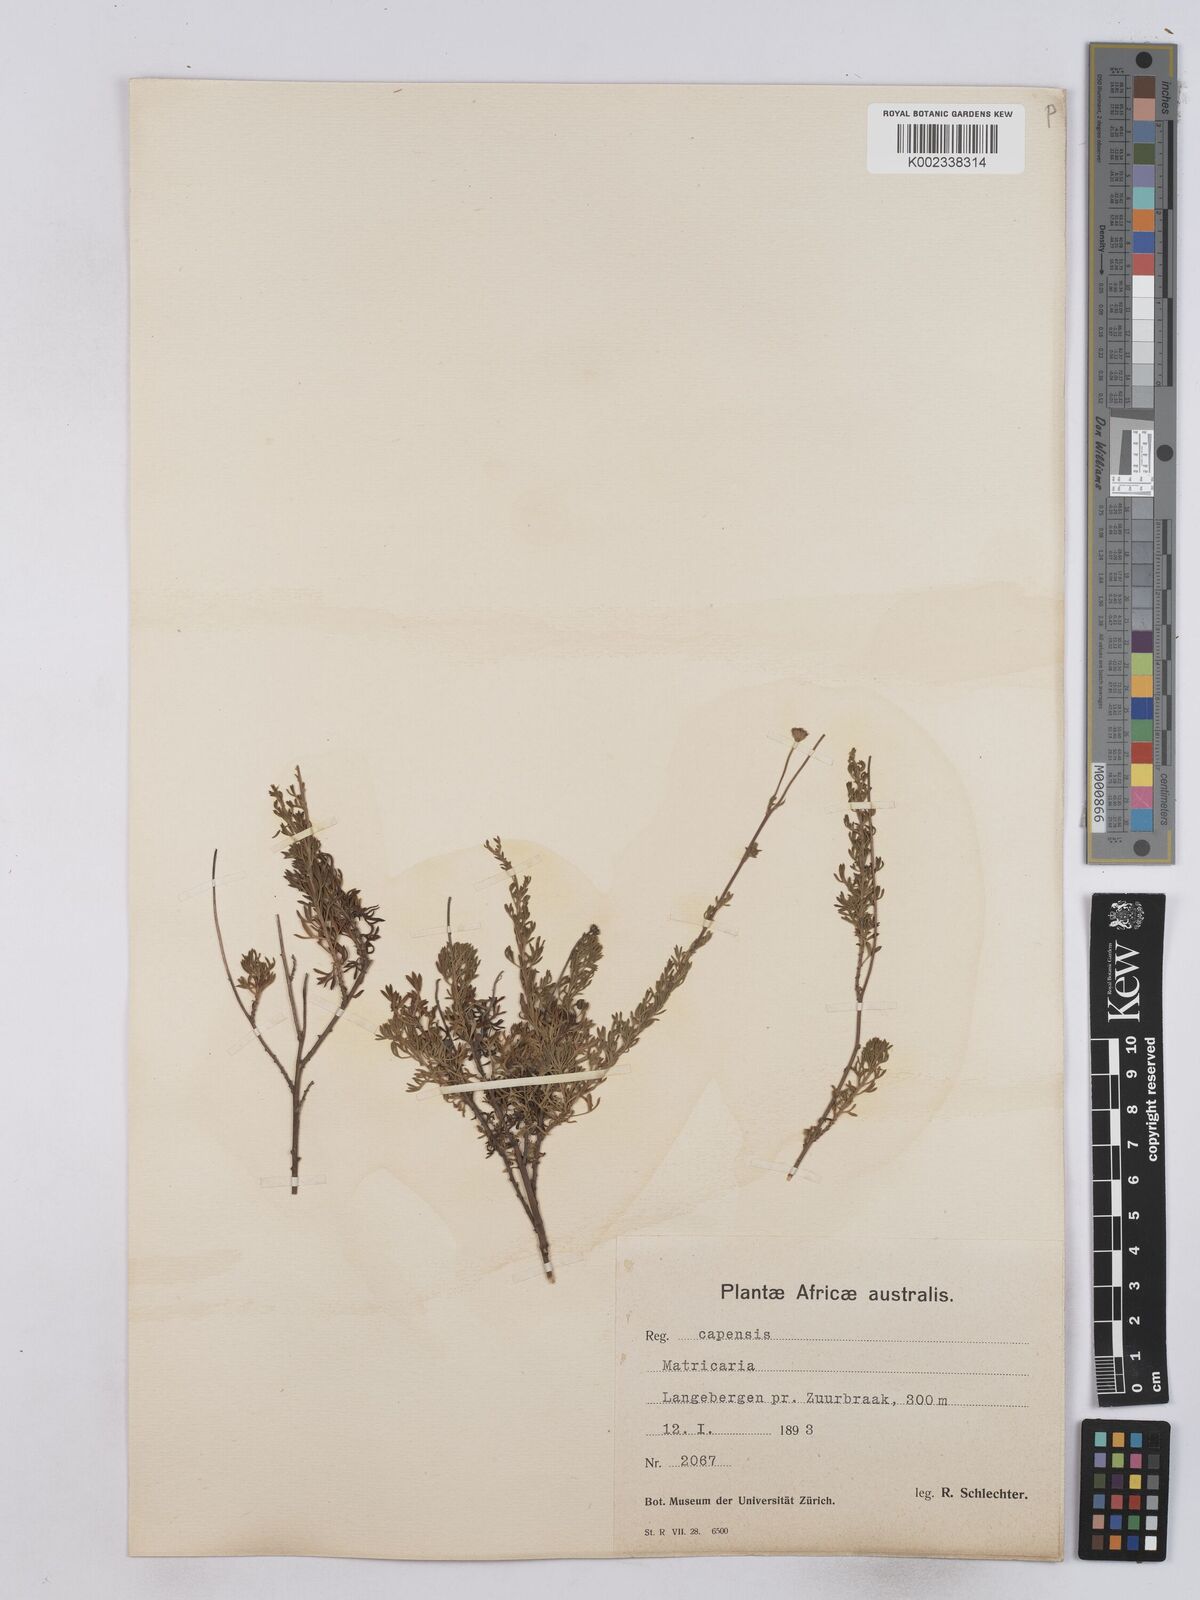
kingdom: Plantae
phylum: Tracheophyta
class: Magnoliopsida
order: Asterales
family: Asteraceae
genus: Matricaria
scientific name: Matricaria
